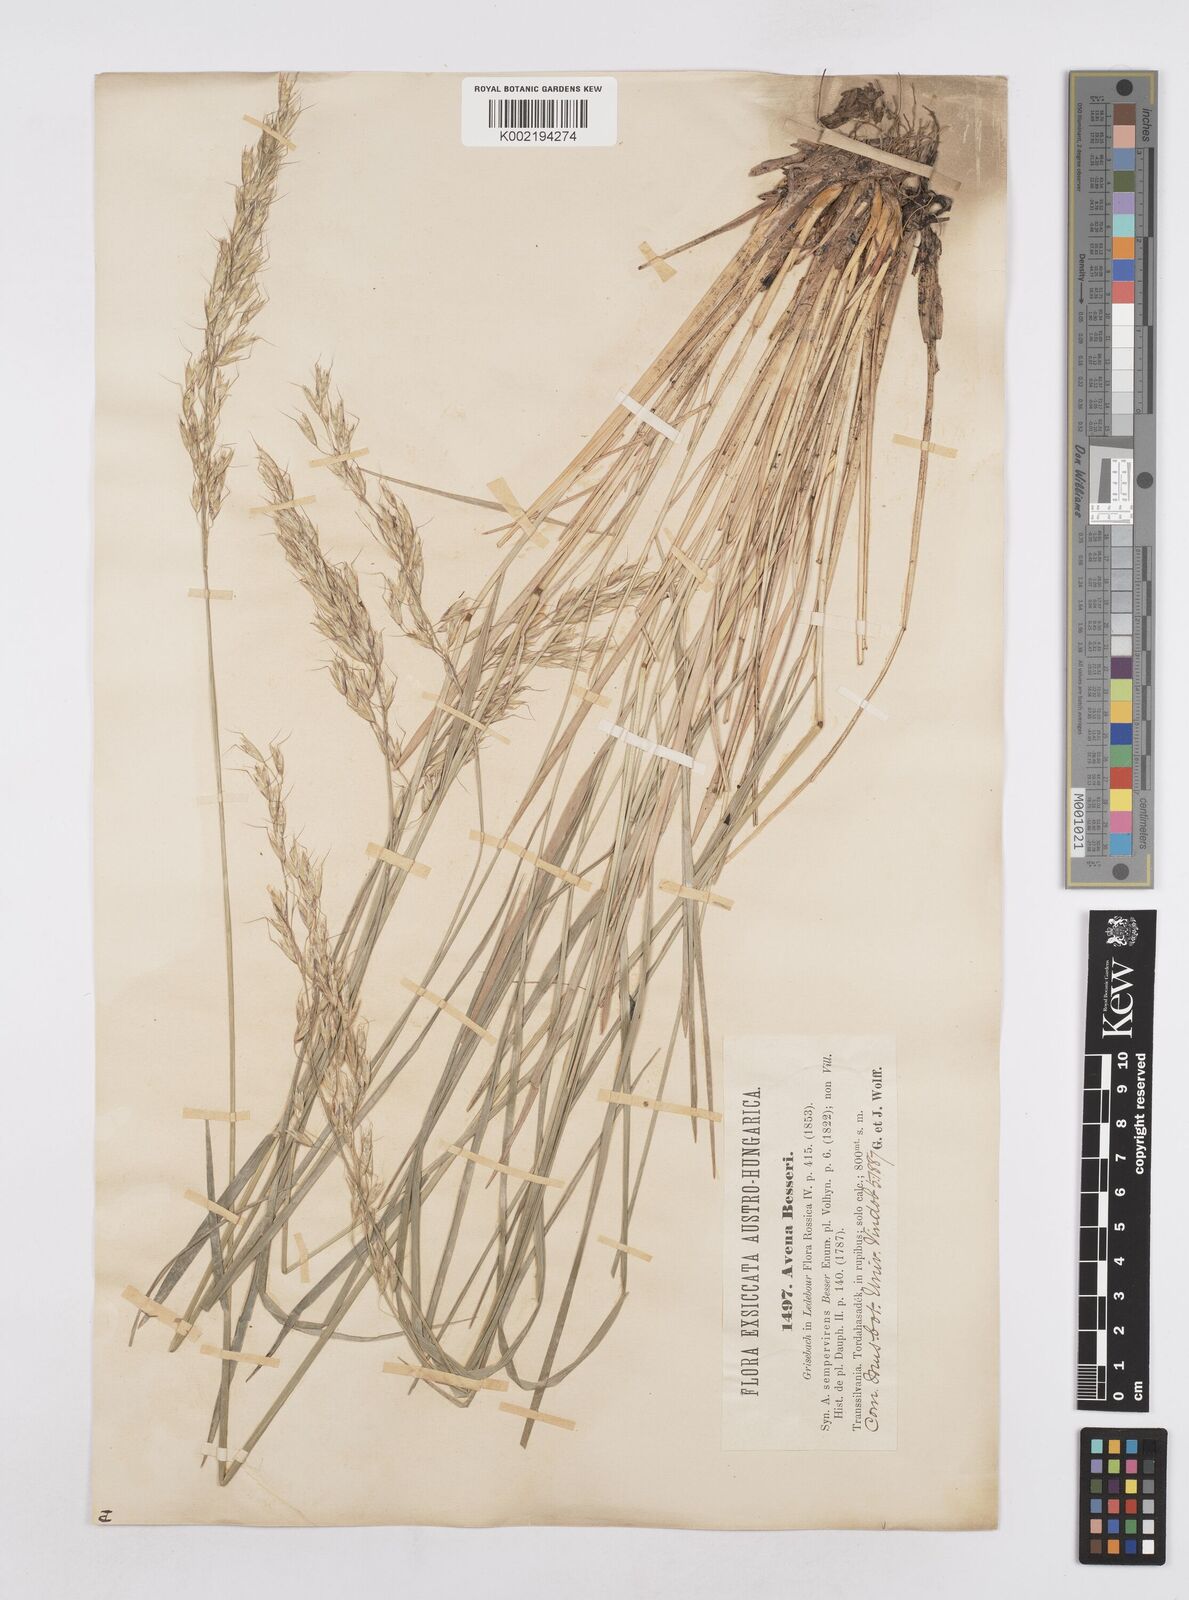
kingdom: Plantae
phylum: Tracheophyta
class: Liliopsida
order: Poales
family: Poaceae
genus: Helictotrichon
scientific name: Helictotrichon decorum
